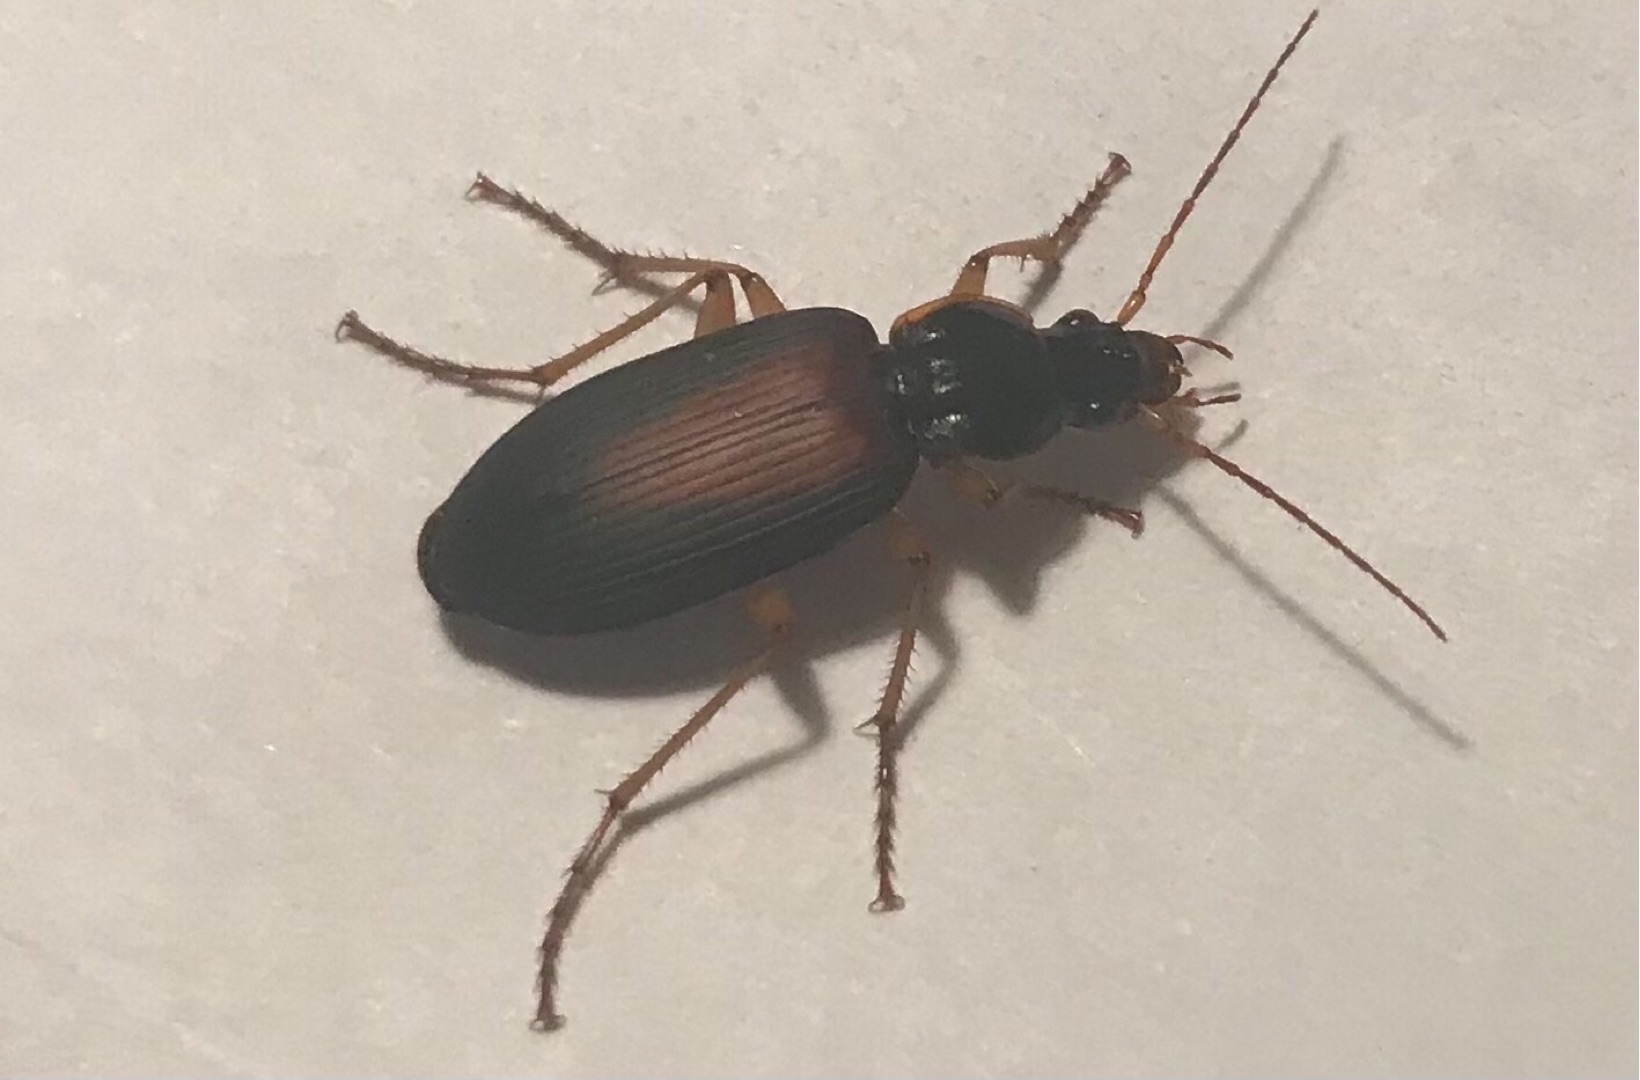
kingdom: Animalia
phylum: Arthropoda
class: Insecta
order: Coleoptera
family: Carabidae
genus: Dolichus
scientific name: Dolichus halensis
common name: Stor kamløber
